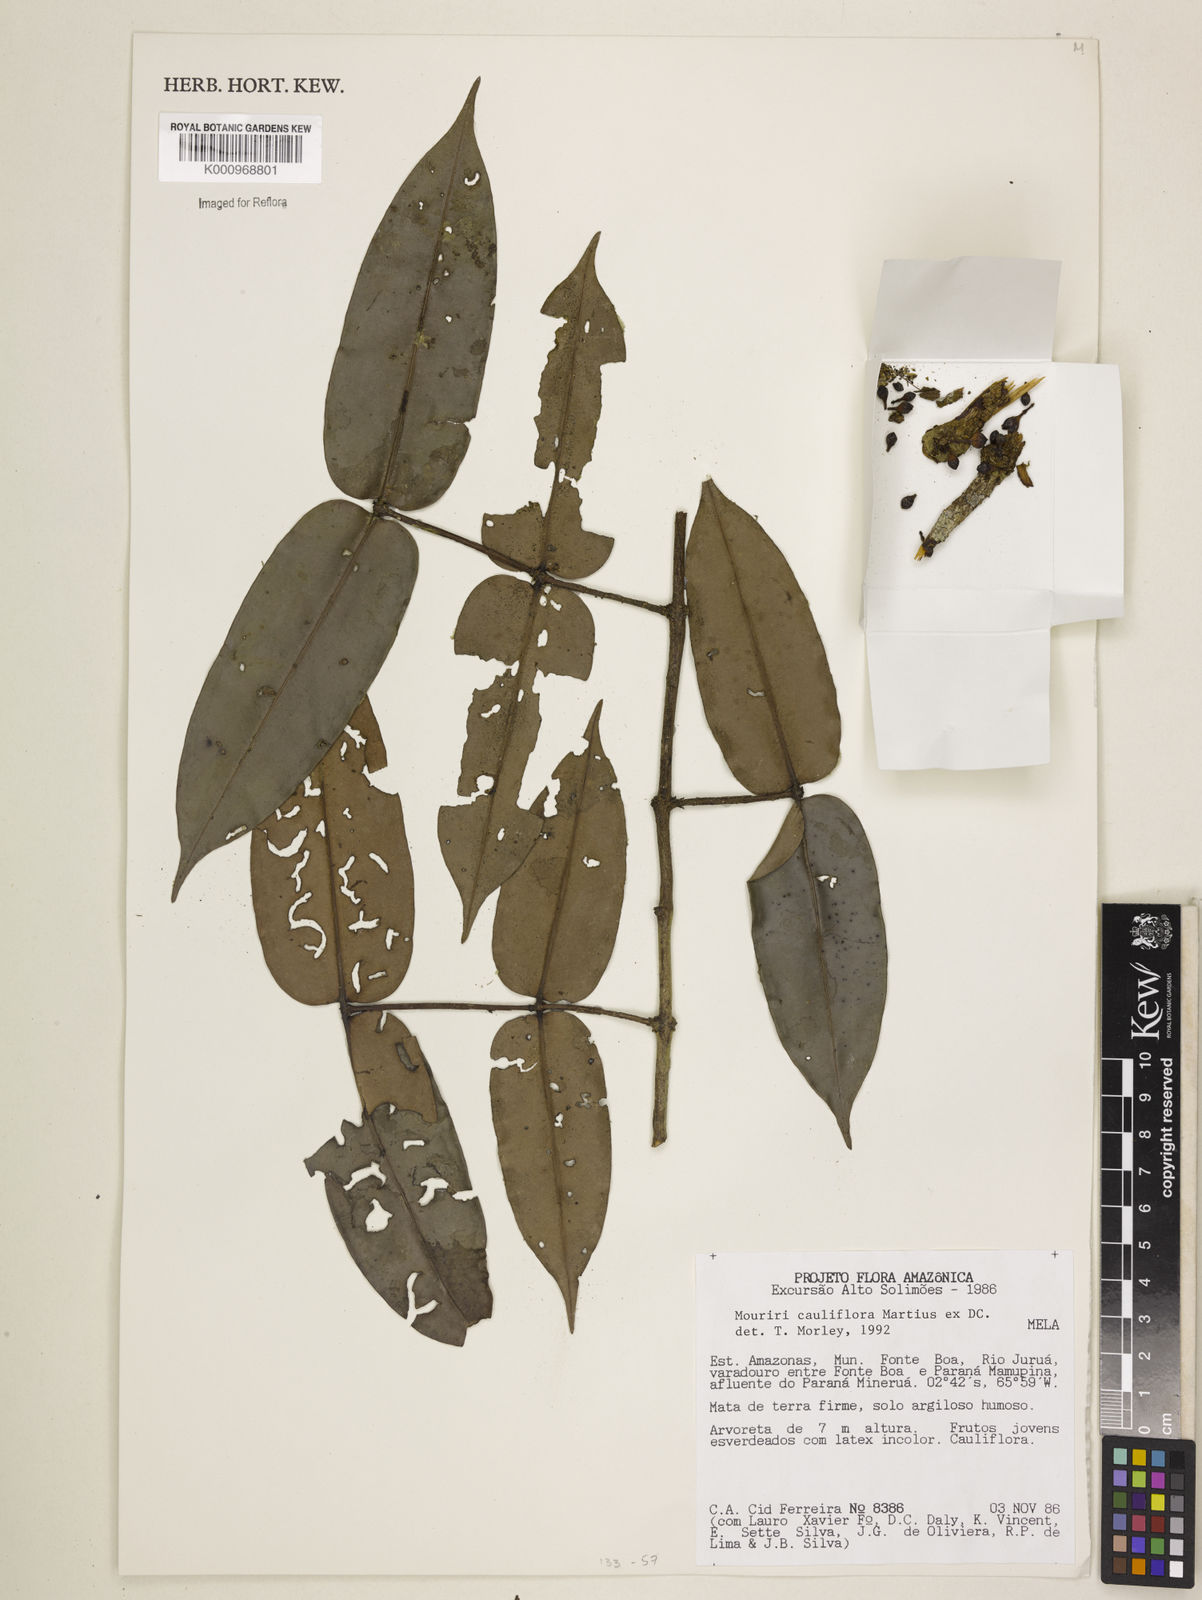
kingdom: Plantae
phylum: Tracheophyta
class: Magnoliopsida
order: Myrtales
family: Melastomataceae
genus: Mouriri
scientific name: Mouriri cauliflora
